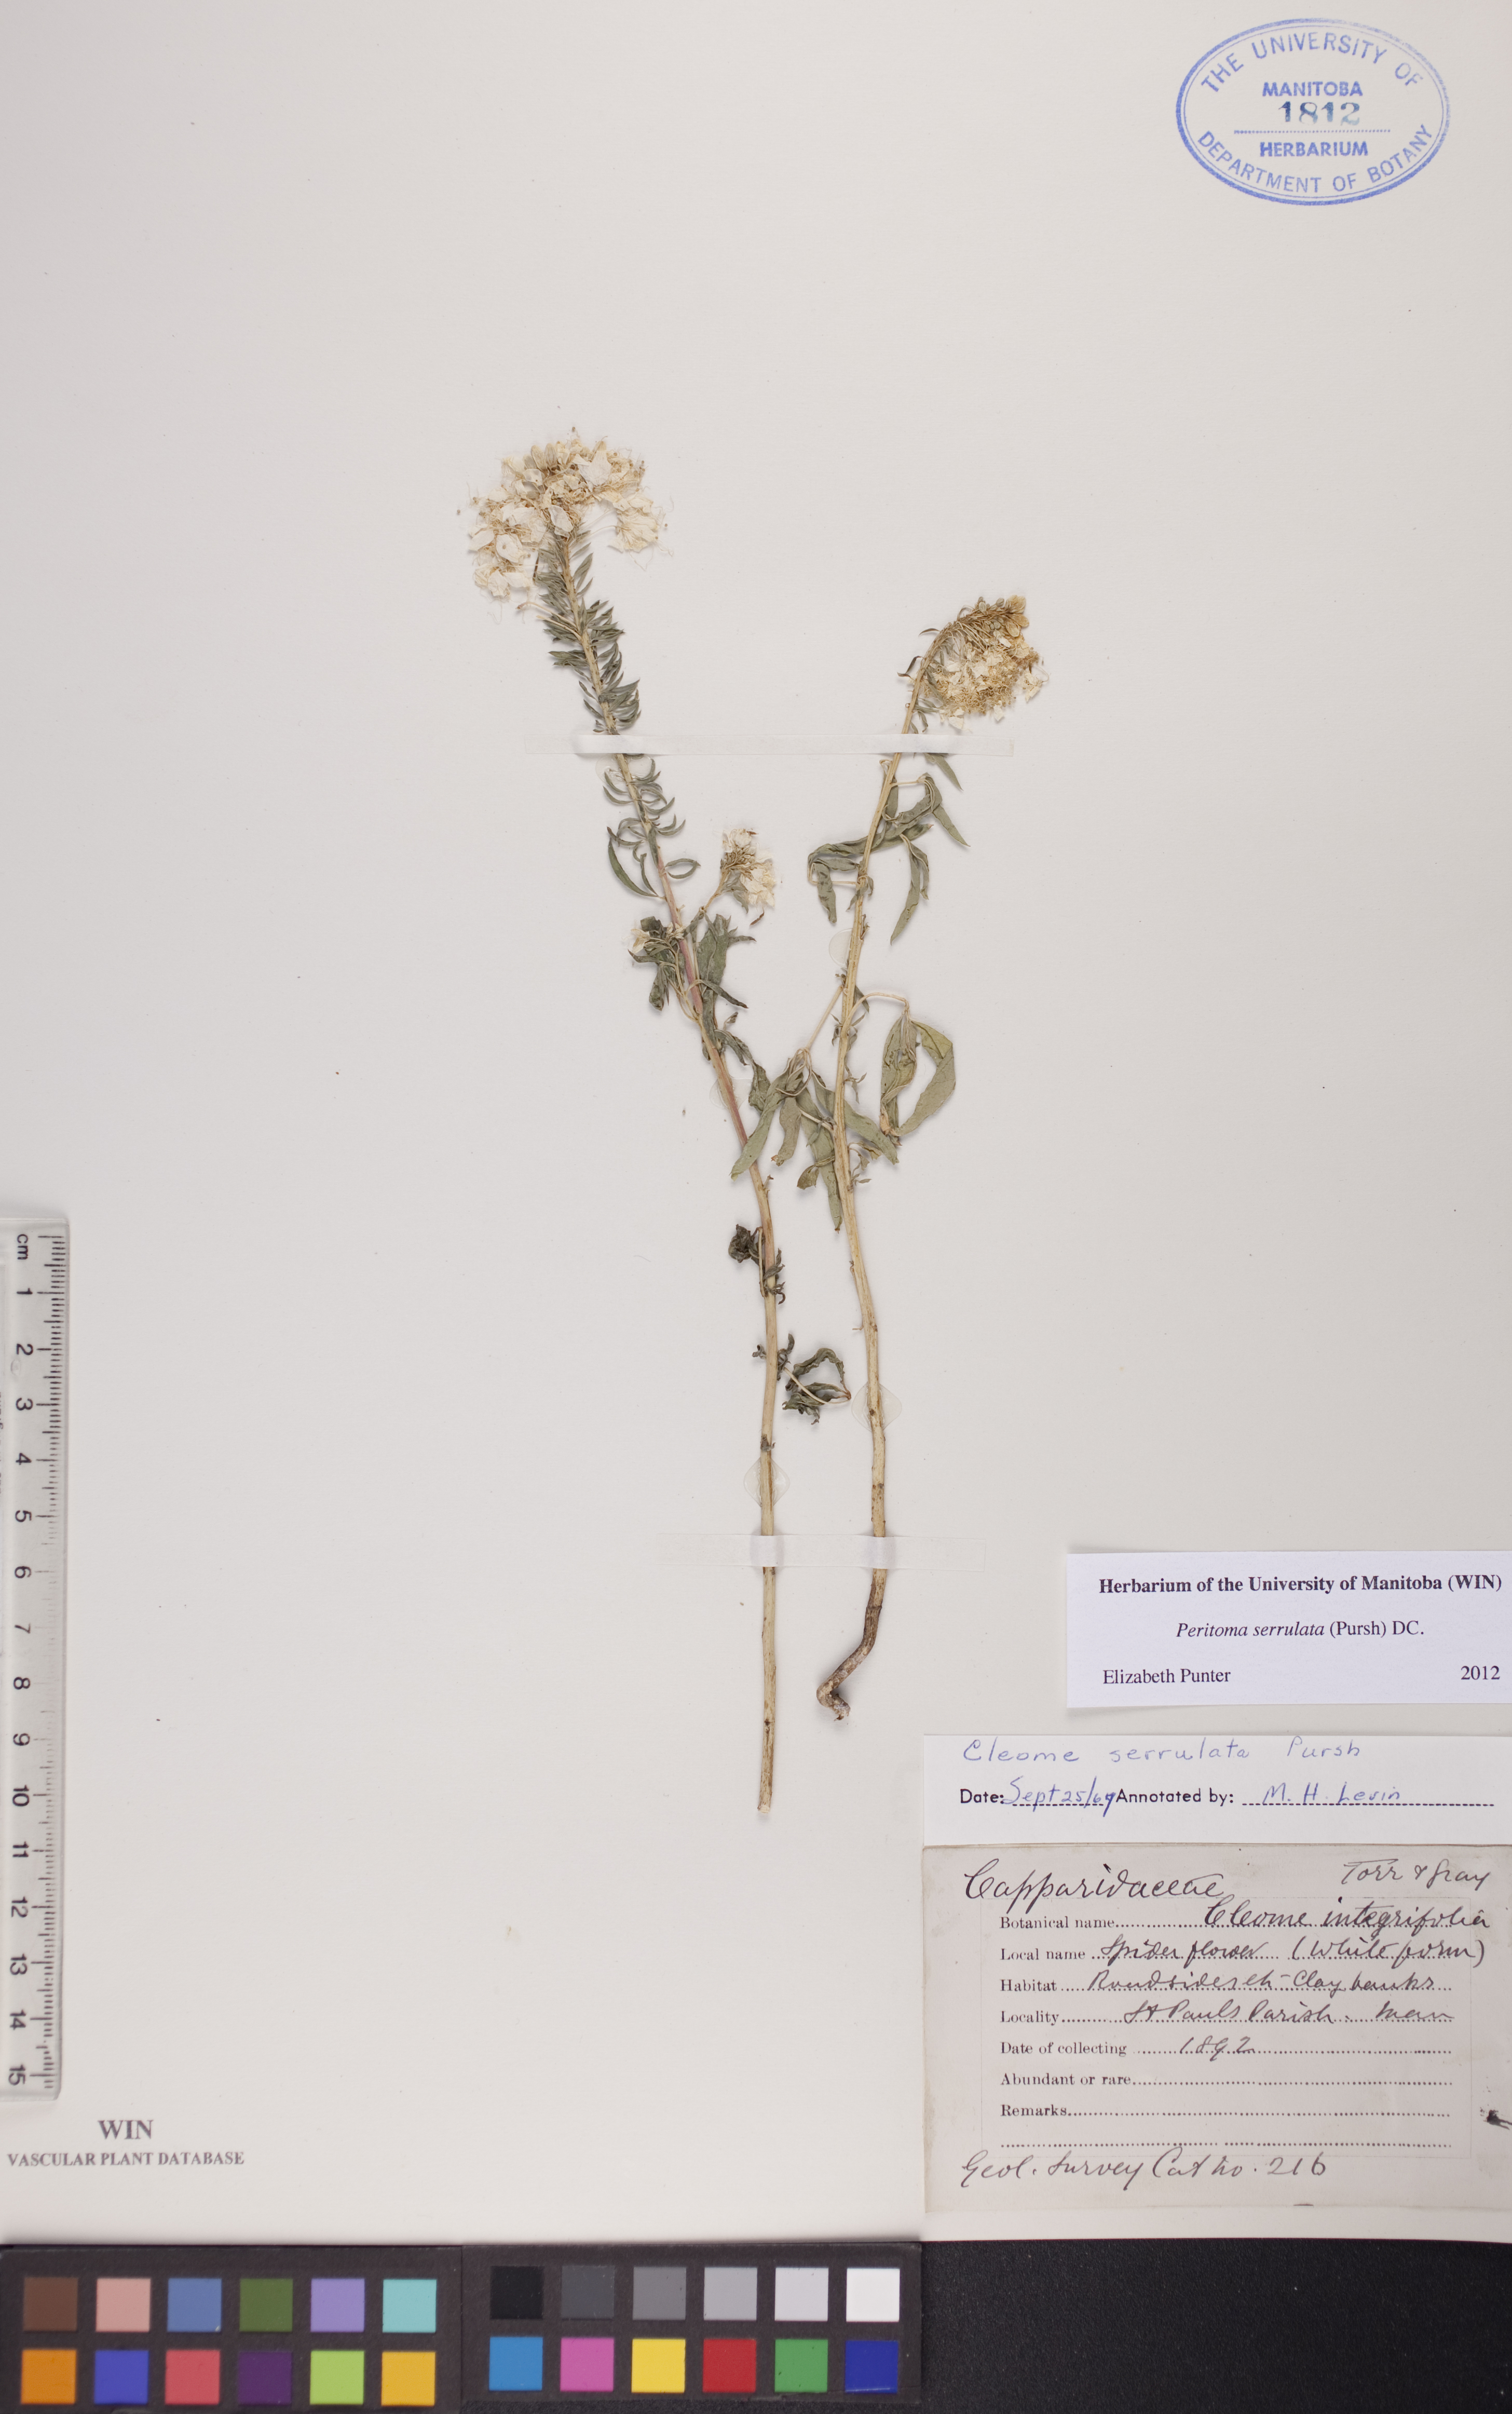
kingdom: Plantae
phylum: Tracheophyta
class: Magnoliopsida
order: Brassicales
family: Cleomaceae
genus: Cleomella
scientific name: Cleomella serrulata
